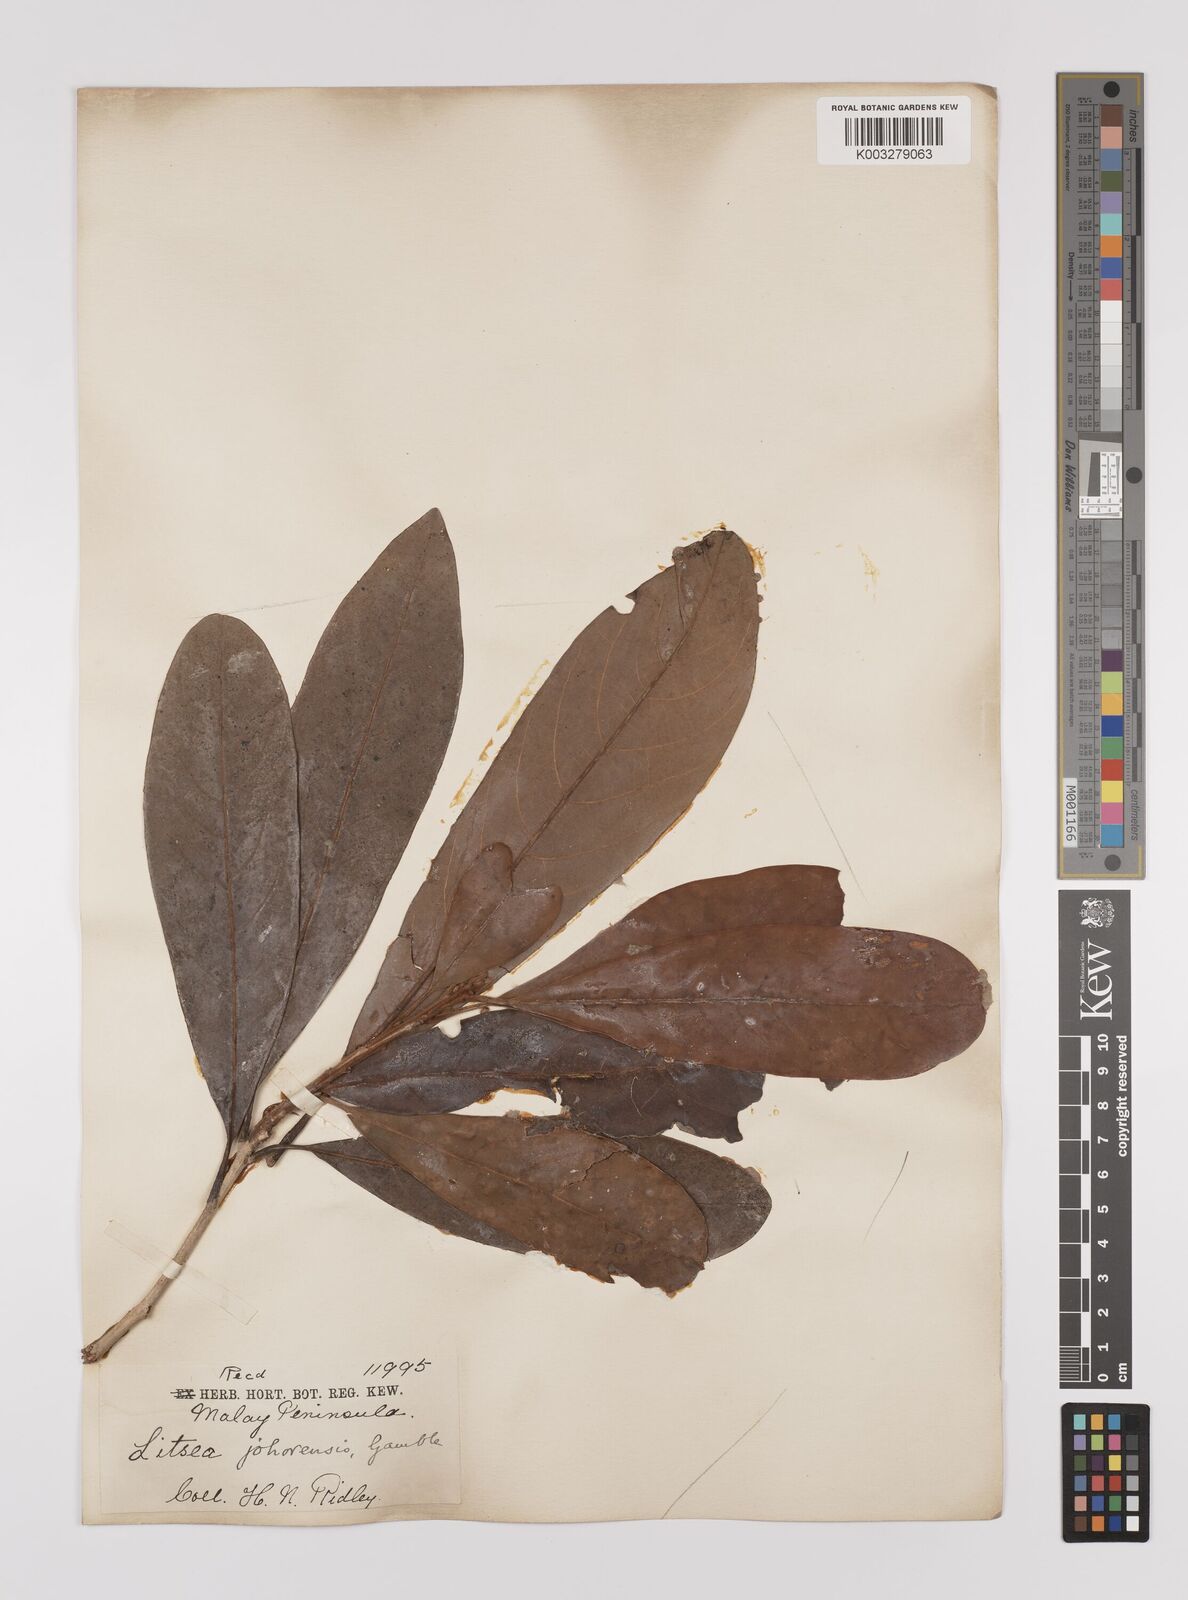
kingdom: Plantae
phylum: Tracheophyta
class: Magnoliopsida
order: Laurales
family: Lauraceae
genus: Litsea
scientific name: Litsea johorensis
